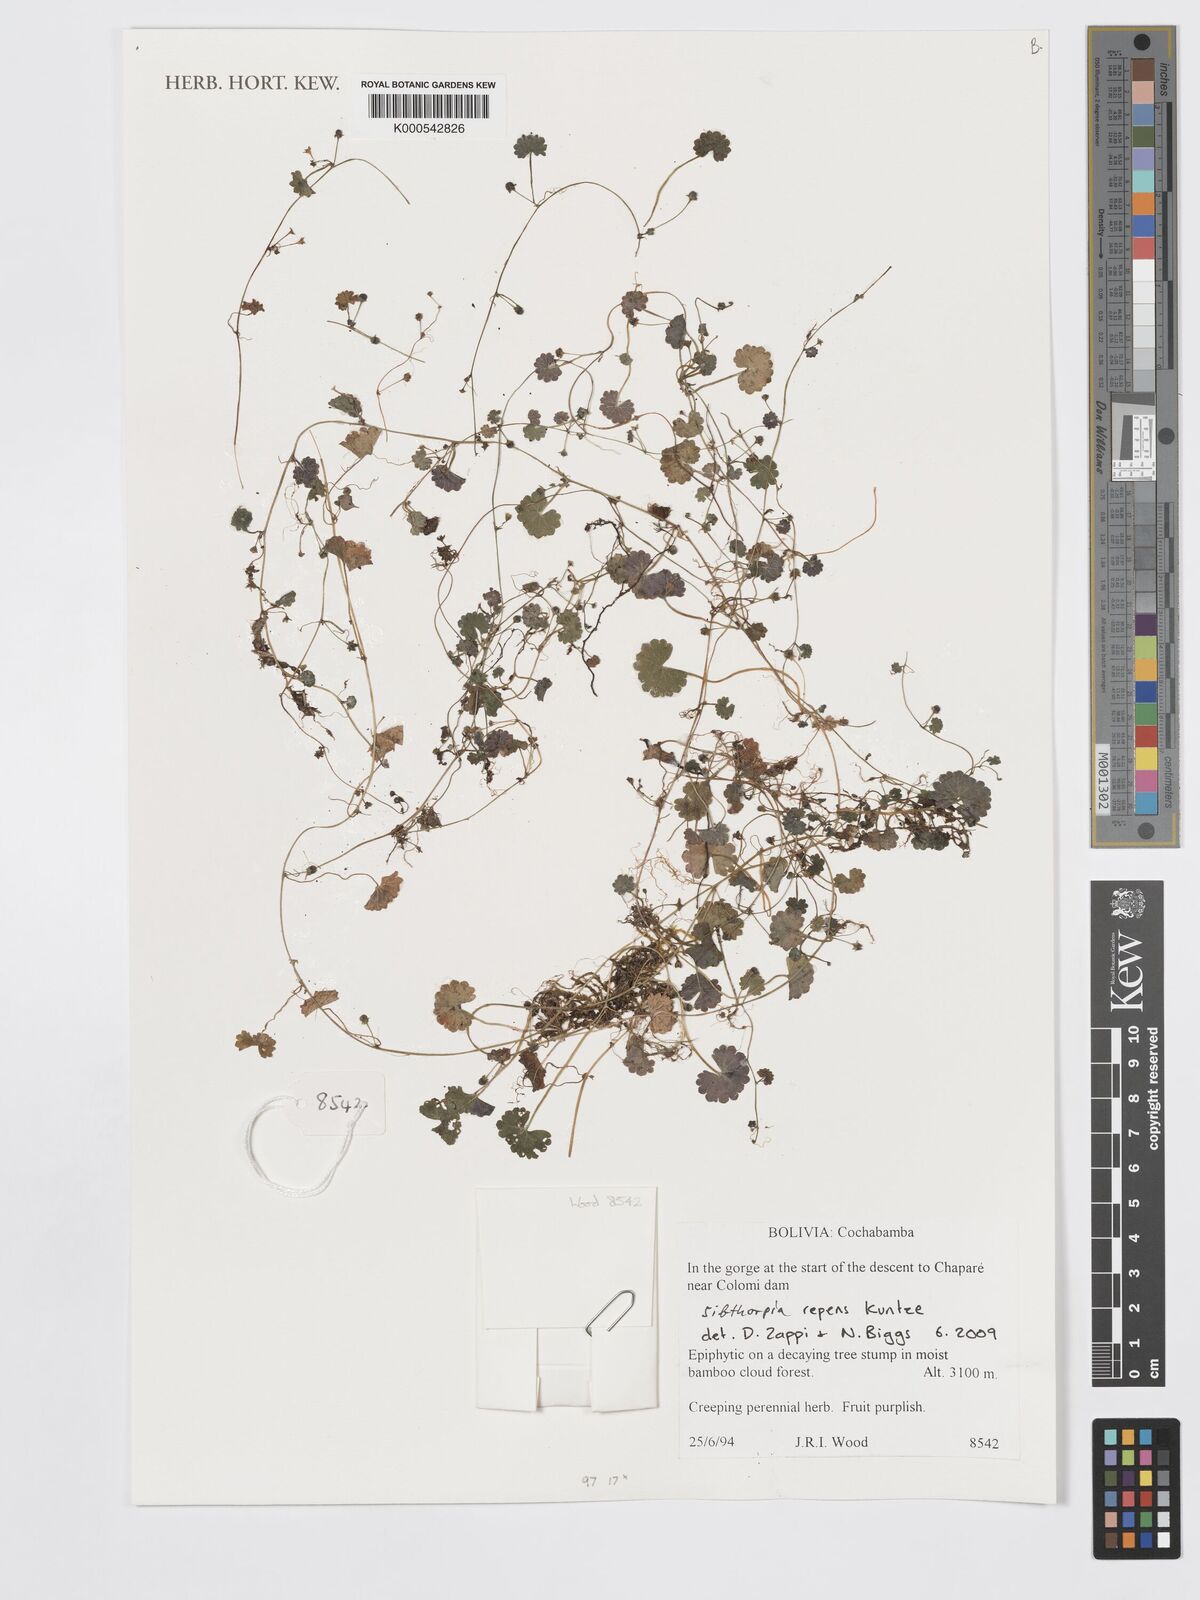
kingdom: Plantae
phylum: Tracheophyta
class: Magnoliopsida
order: Lamiales
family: Plantaginaceae
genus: Sibthorpia
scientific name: Sibthorpia repens
